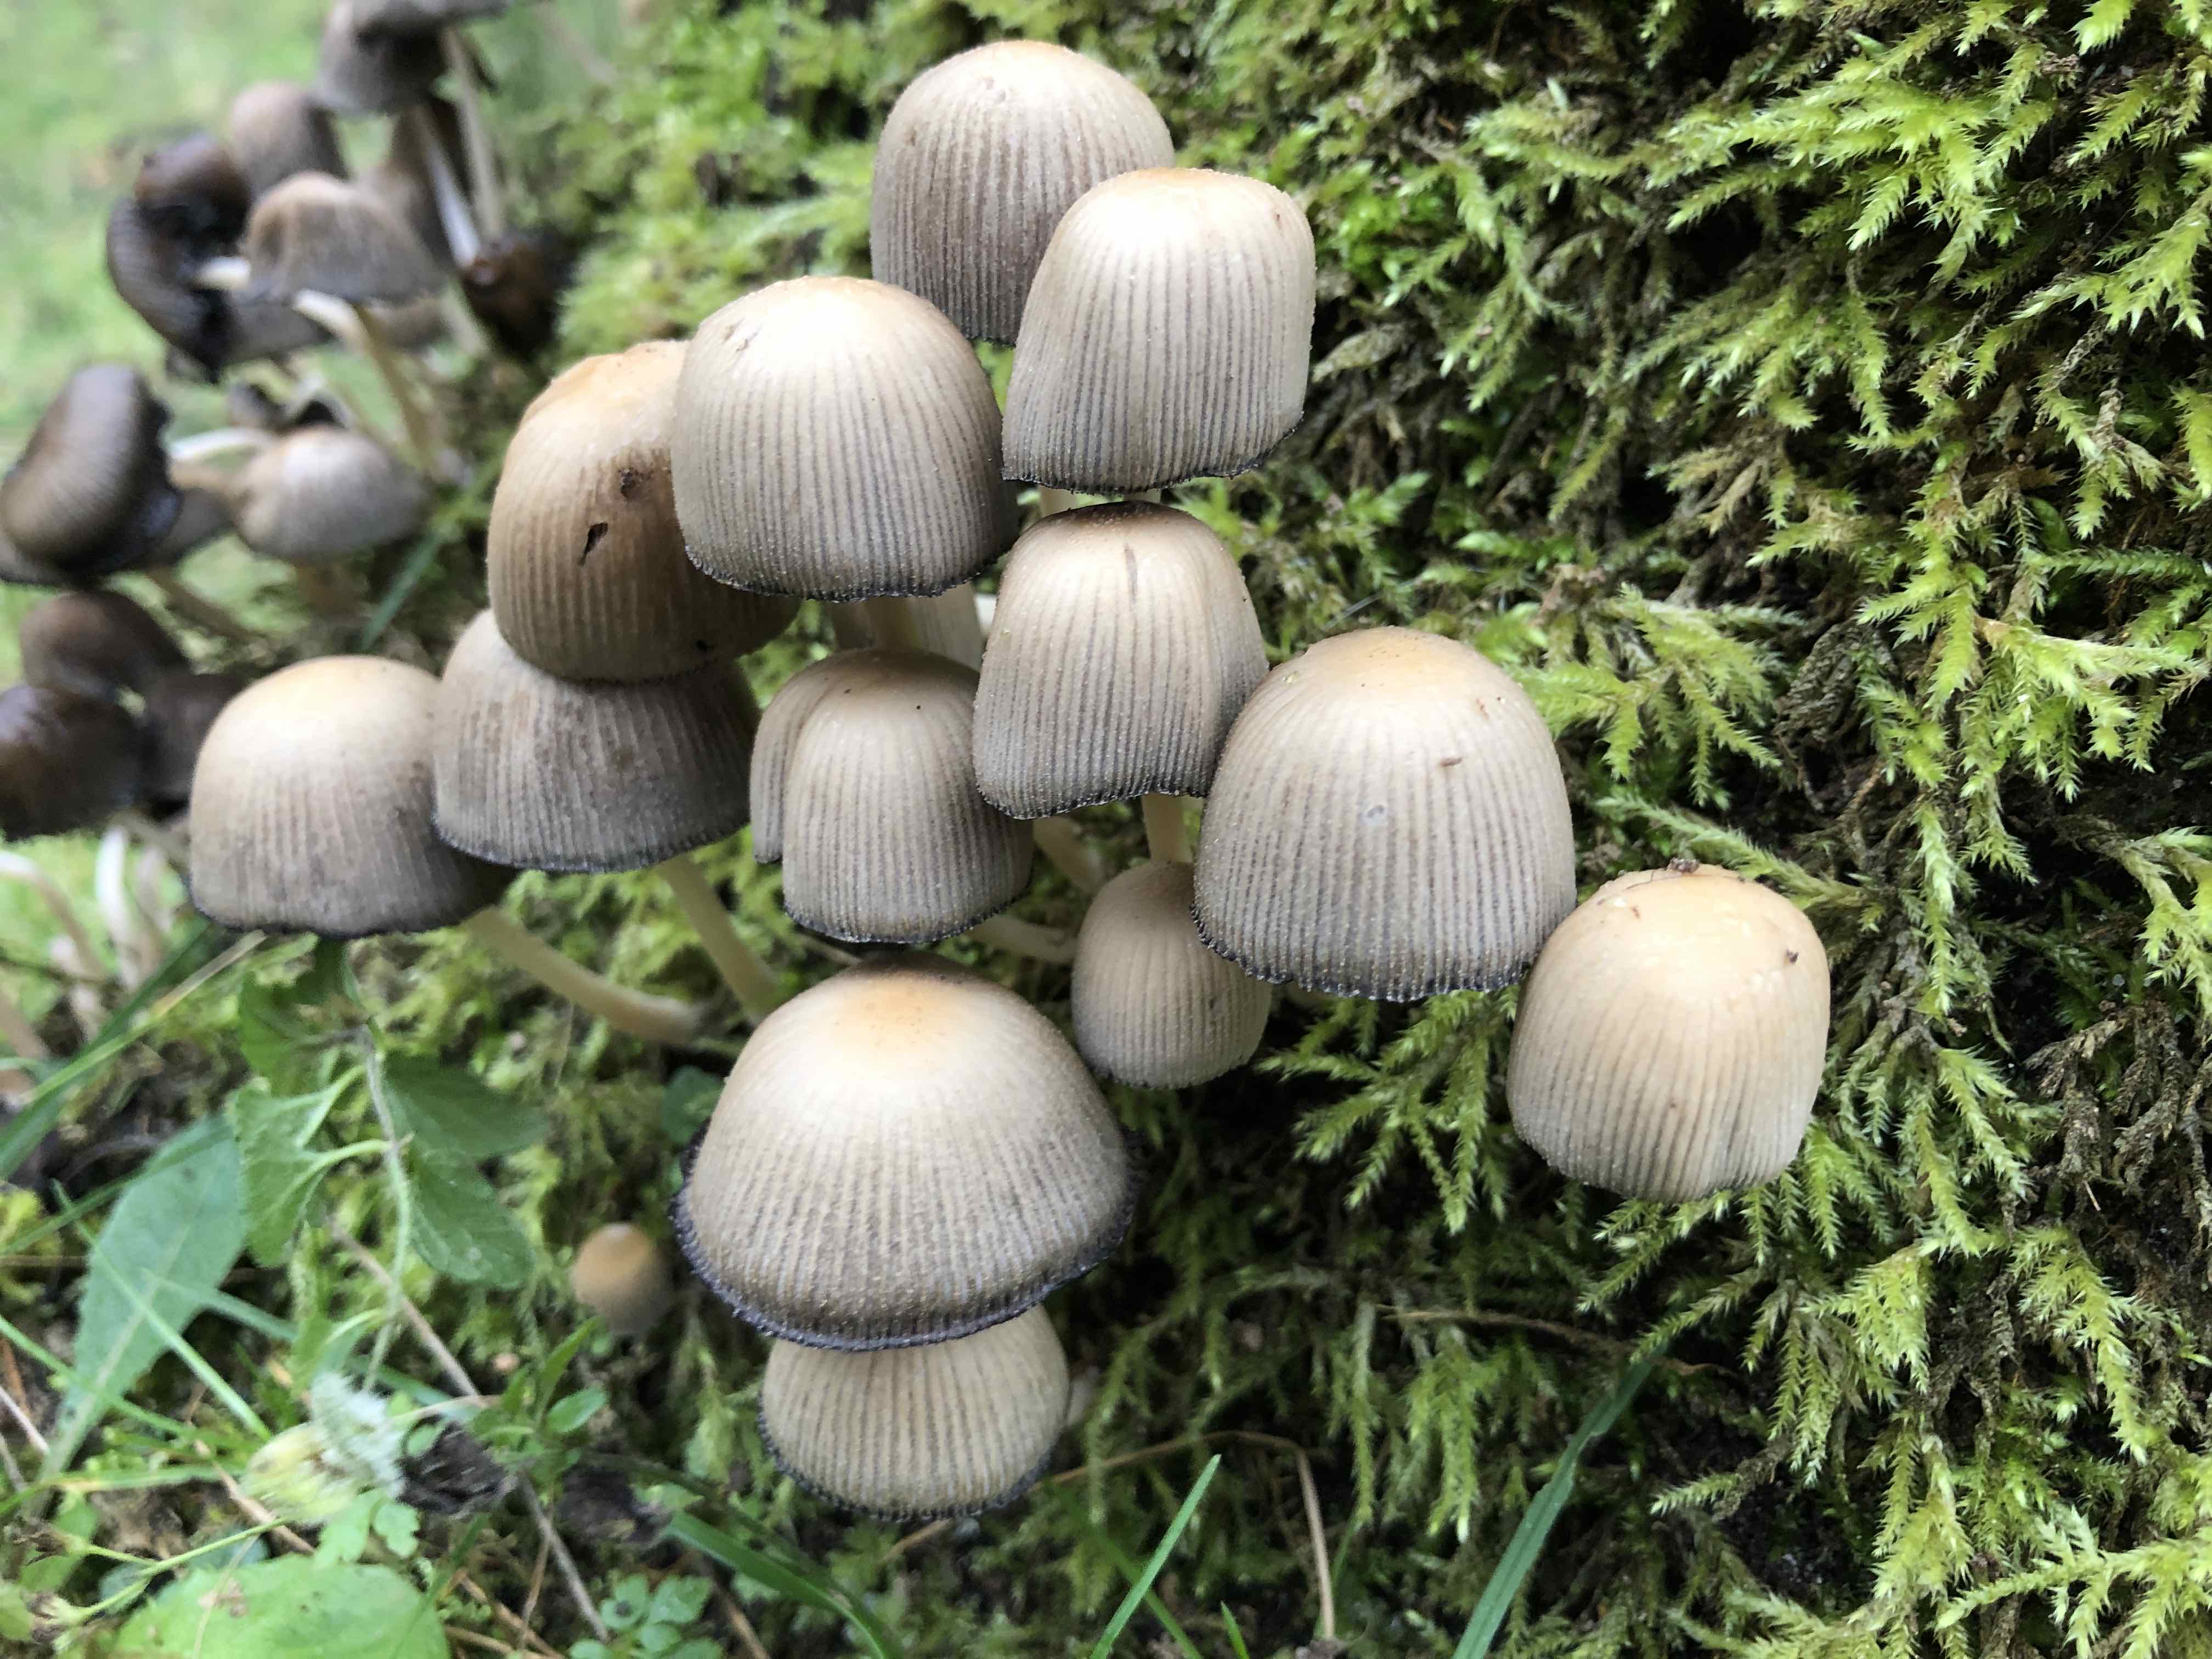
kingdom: Fungi
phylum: Basidiomycota
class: Agaricomycetes
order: Agaricales
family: Psathyrellaceae
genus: Coprinellus
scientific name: Coprinellus micaceus
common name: glimmer-blækhat
